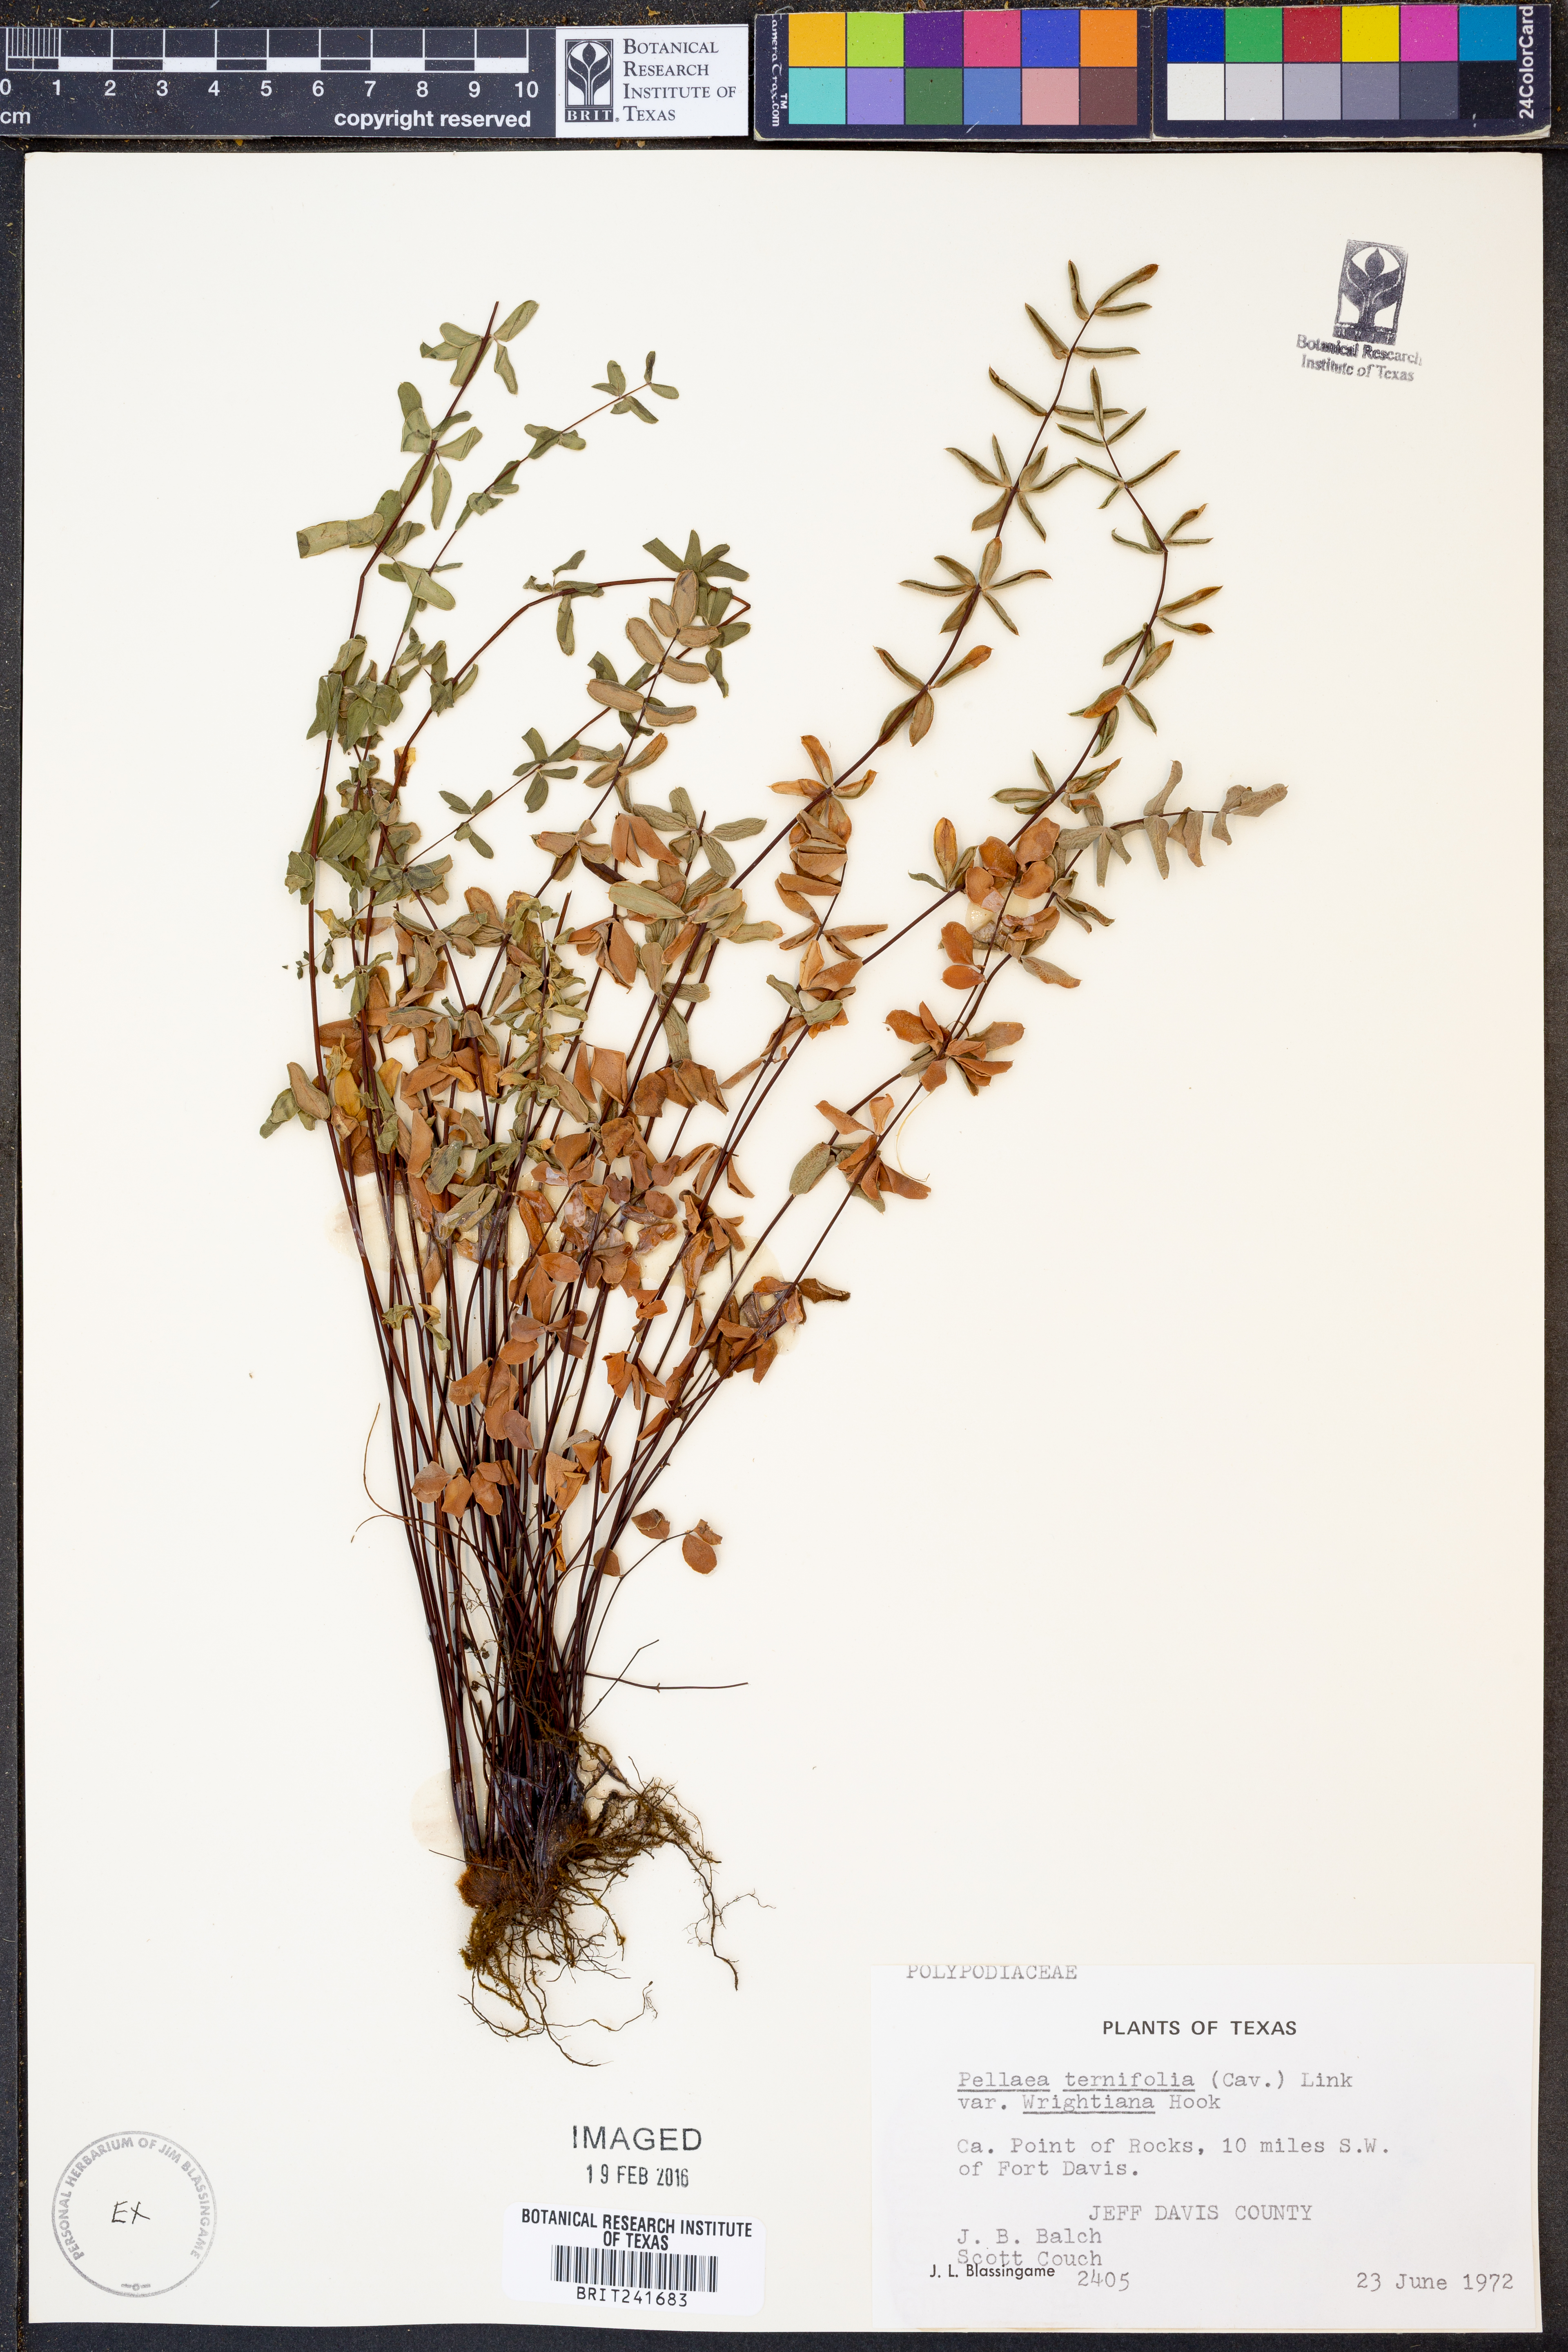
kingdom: Plantae
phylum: Tracheophyta
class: Polypodiopsida
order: Polypodiales
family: Pteridaceae
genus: Pellaea
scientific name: Pellaea wrightiana
